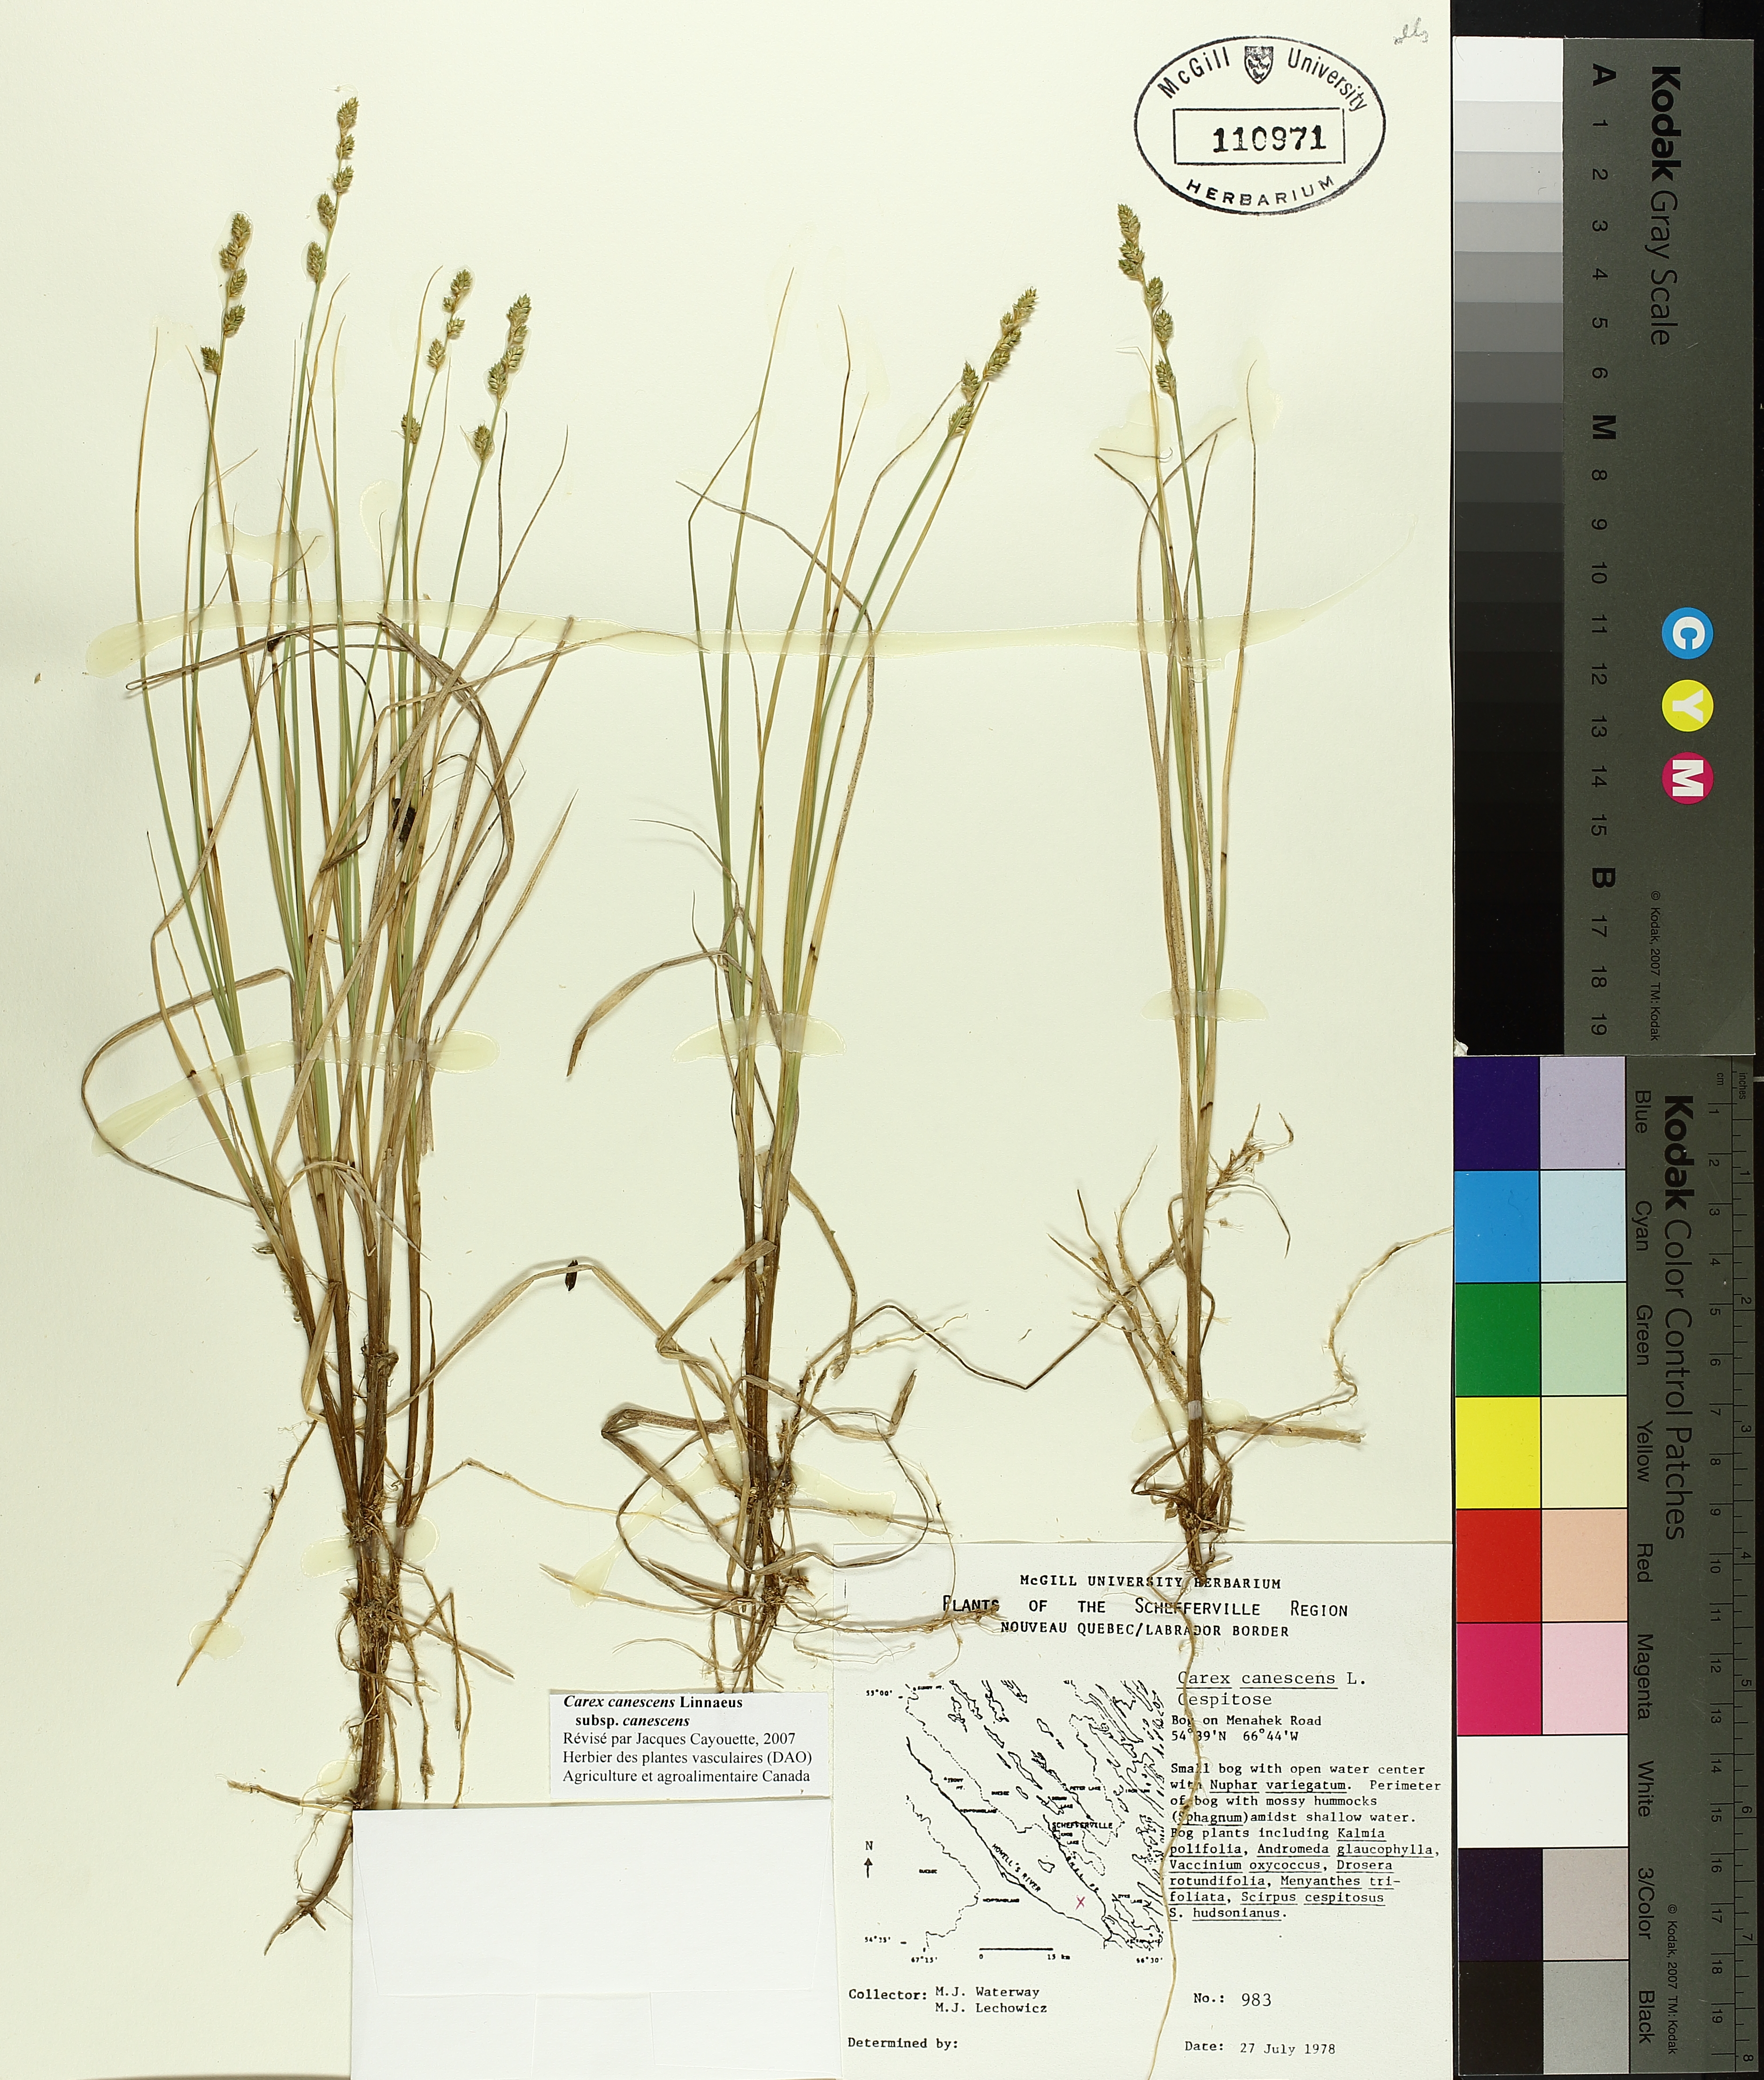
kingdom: Plantae
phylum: Tracheophyta
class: Liliopsida
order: Poales
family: Cyperaceae
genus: Carex
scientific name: Carex canescens
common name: White sedge
